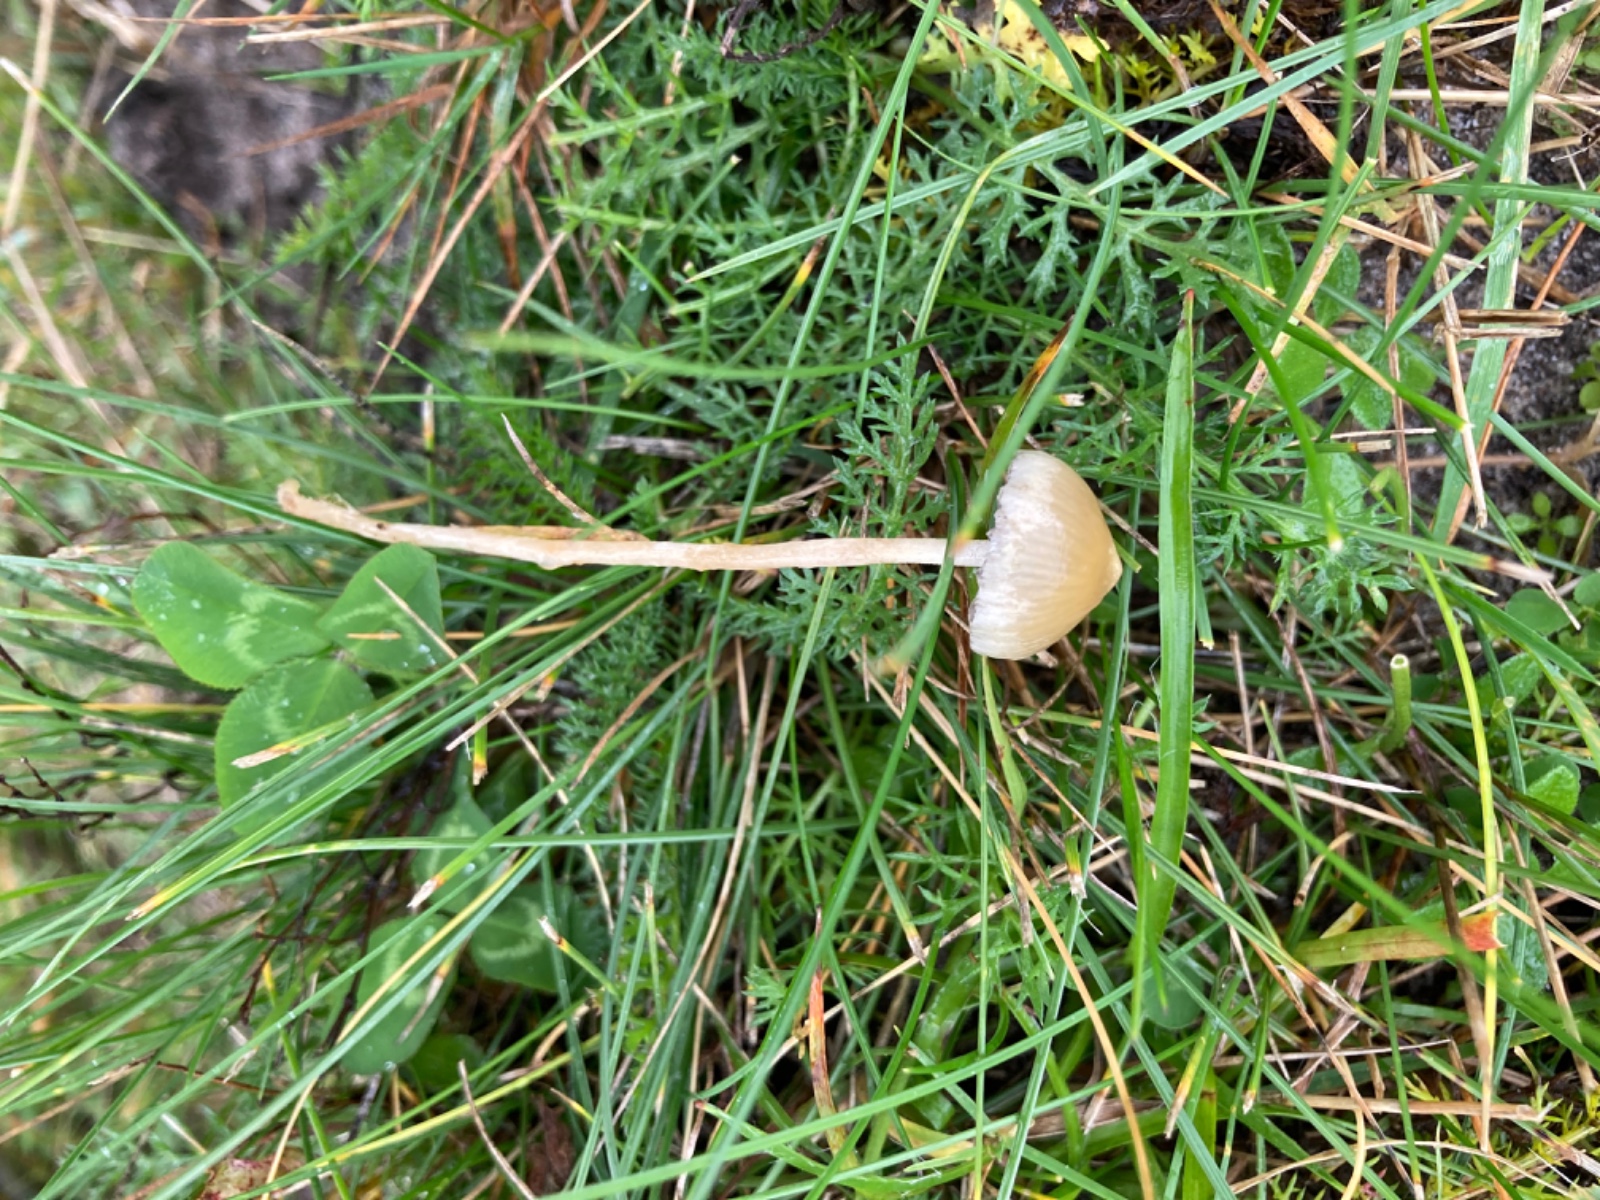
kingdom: Fungi
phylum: Basidiomycota
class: Agaricomycetes
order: Agaricales
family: Hymenogastraceae
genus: Psilocybe
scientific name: Psilocybe semilanceata
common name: spids nøgenhat
